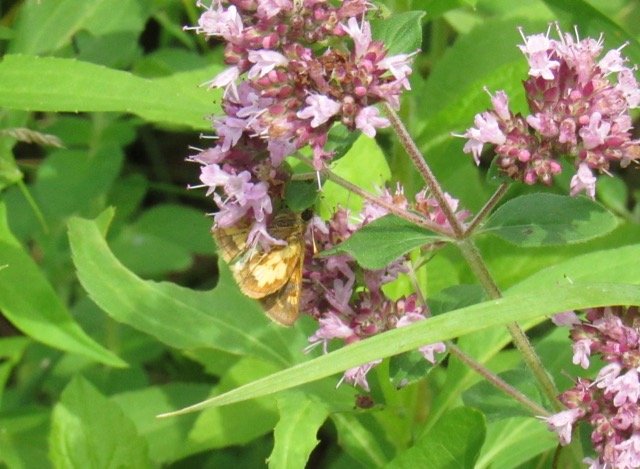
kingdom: Animalia
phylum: Arthropoda
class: Insecta
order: Lepidoptera
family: Hesperiidae
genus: Polites
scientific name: Polites coras
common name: Peck's Skipper
